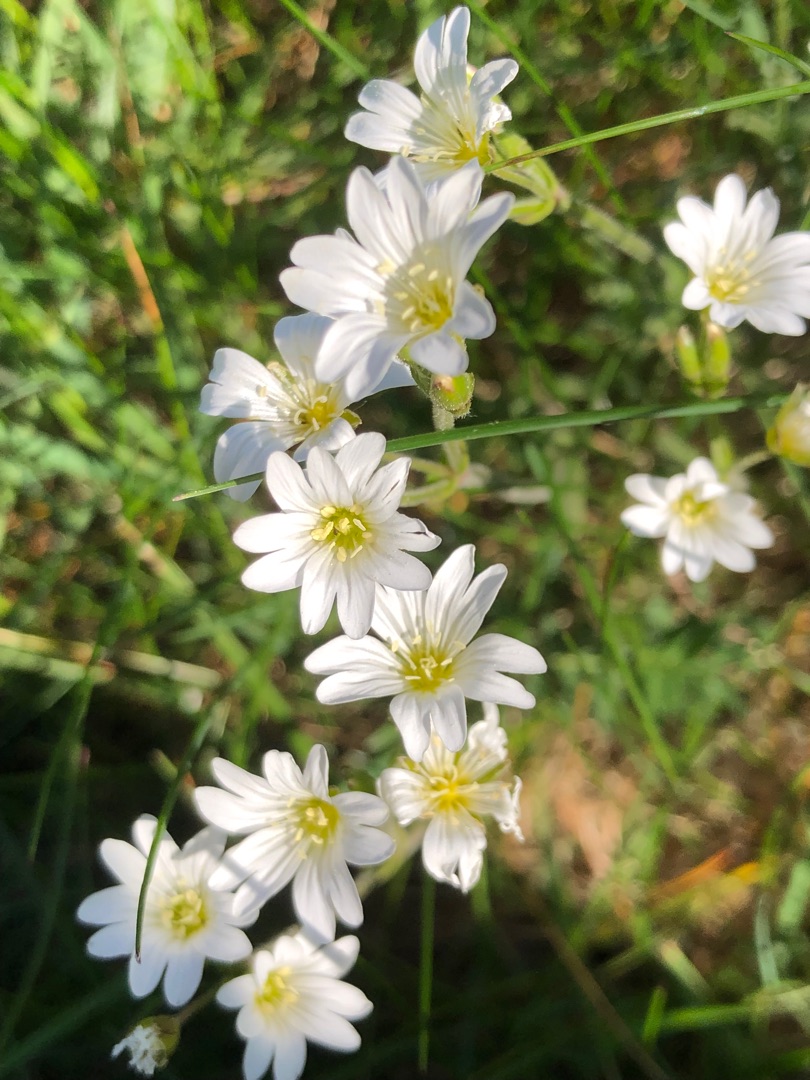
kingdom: Plantae
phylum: Tracheophyta
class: Magnoliopsida
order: Caryophyllales
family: Caryophyllaceae
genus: Cerastium
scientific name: Cerastium arvense
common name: Storblomstret hønsetarm
